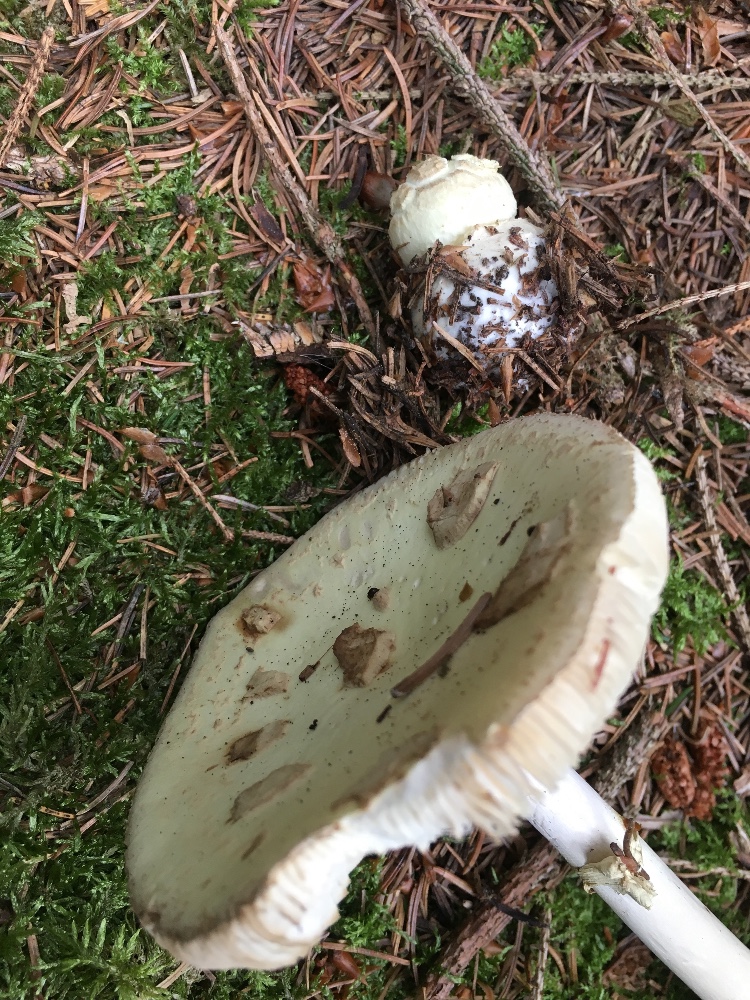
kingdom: Fungi
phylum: Basidiomycota
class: Agaricomycetes
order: Agaricales
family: Amanitaceae
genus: Amanita
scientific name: Amanita citrina
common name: kugleknoldet fluesvamp
